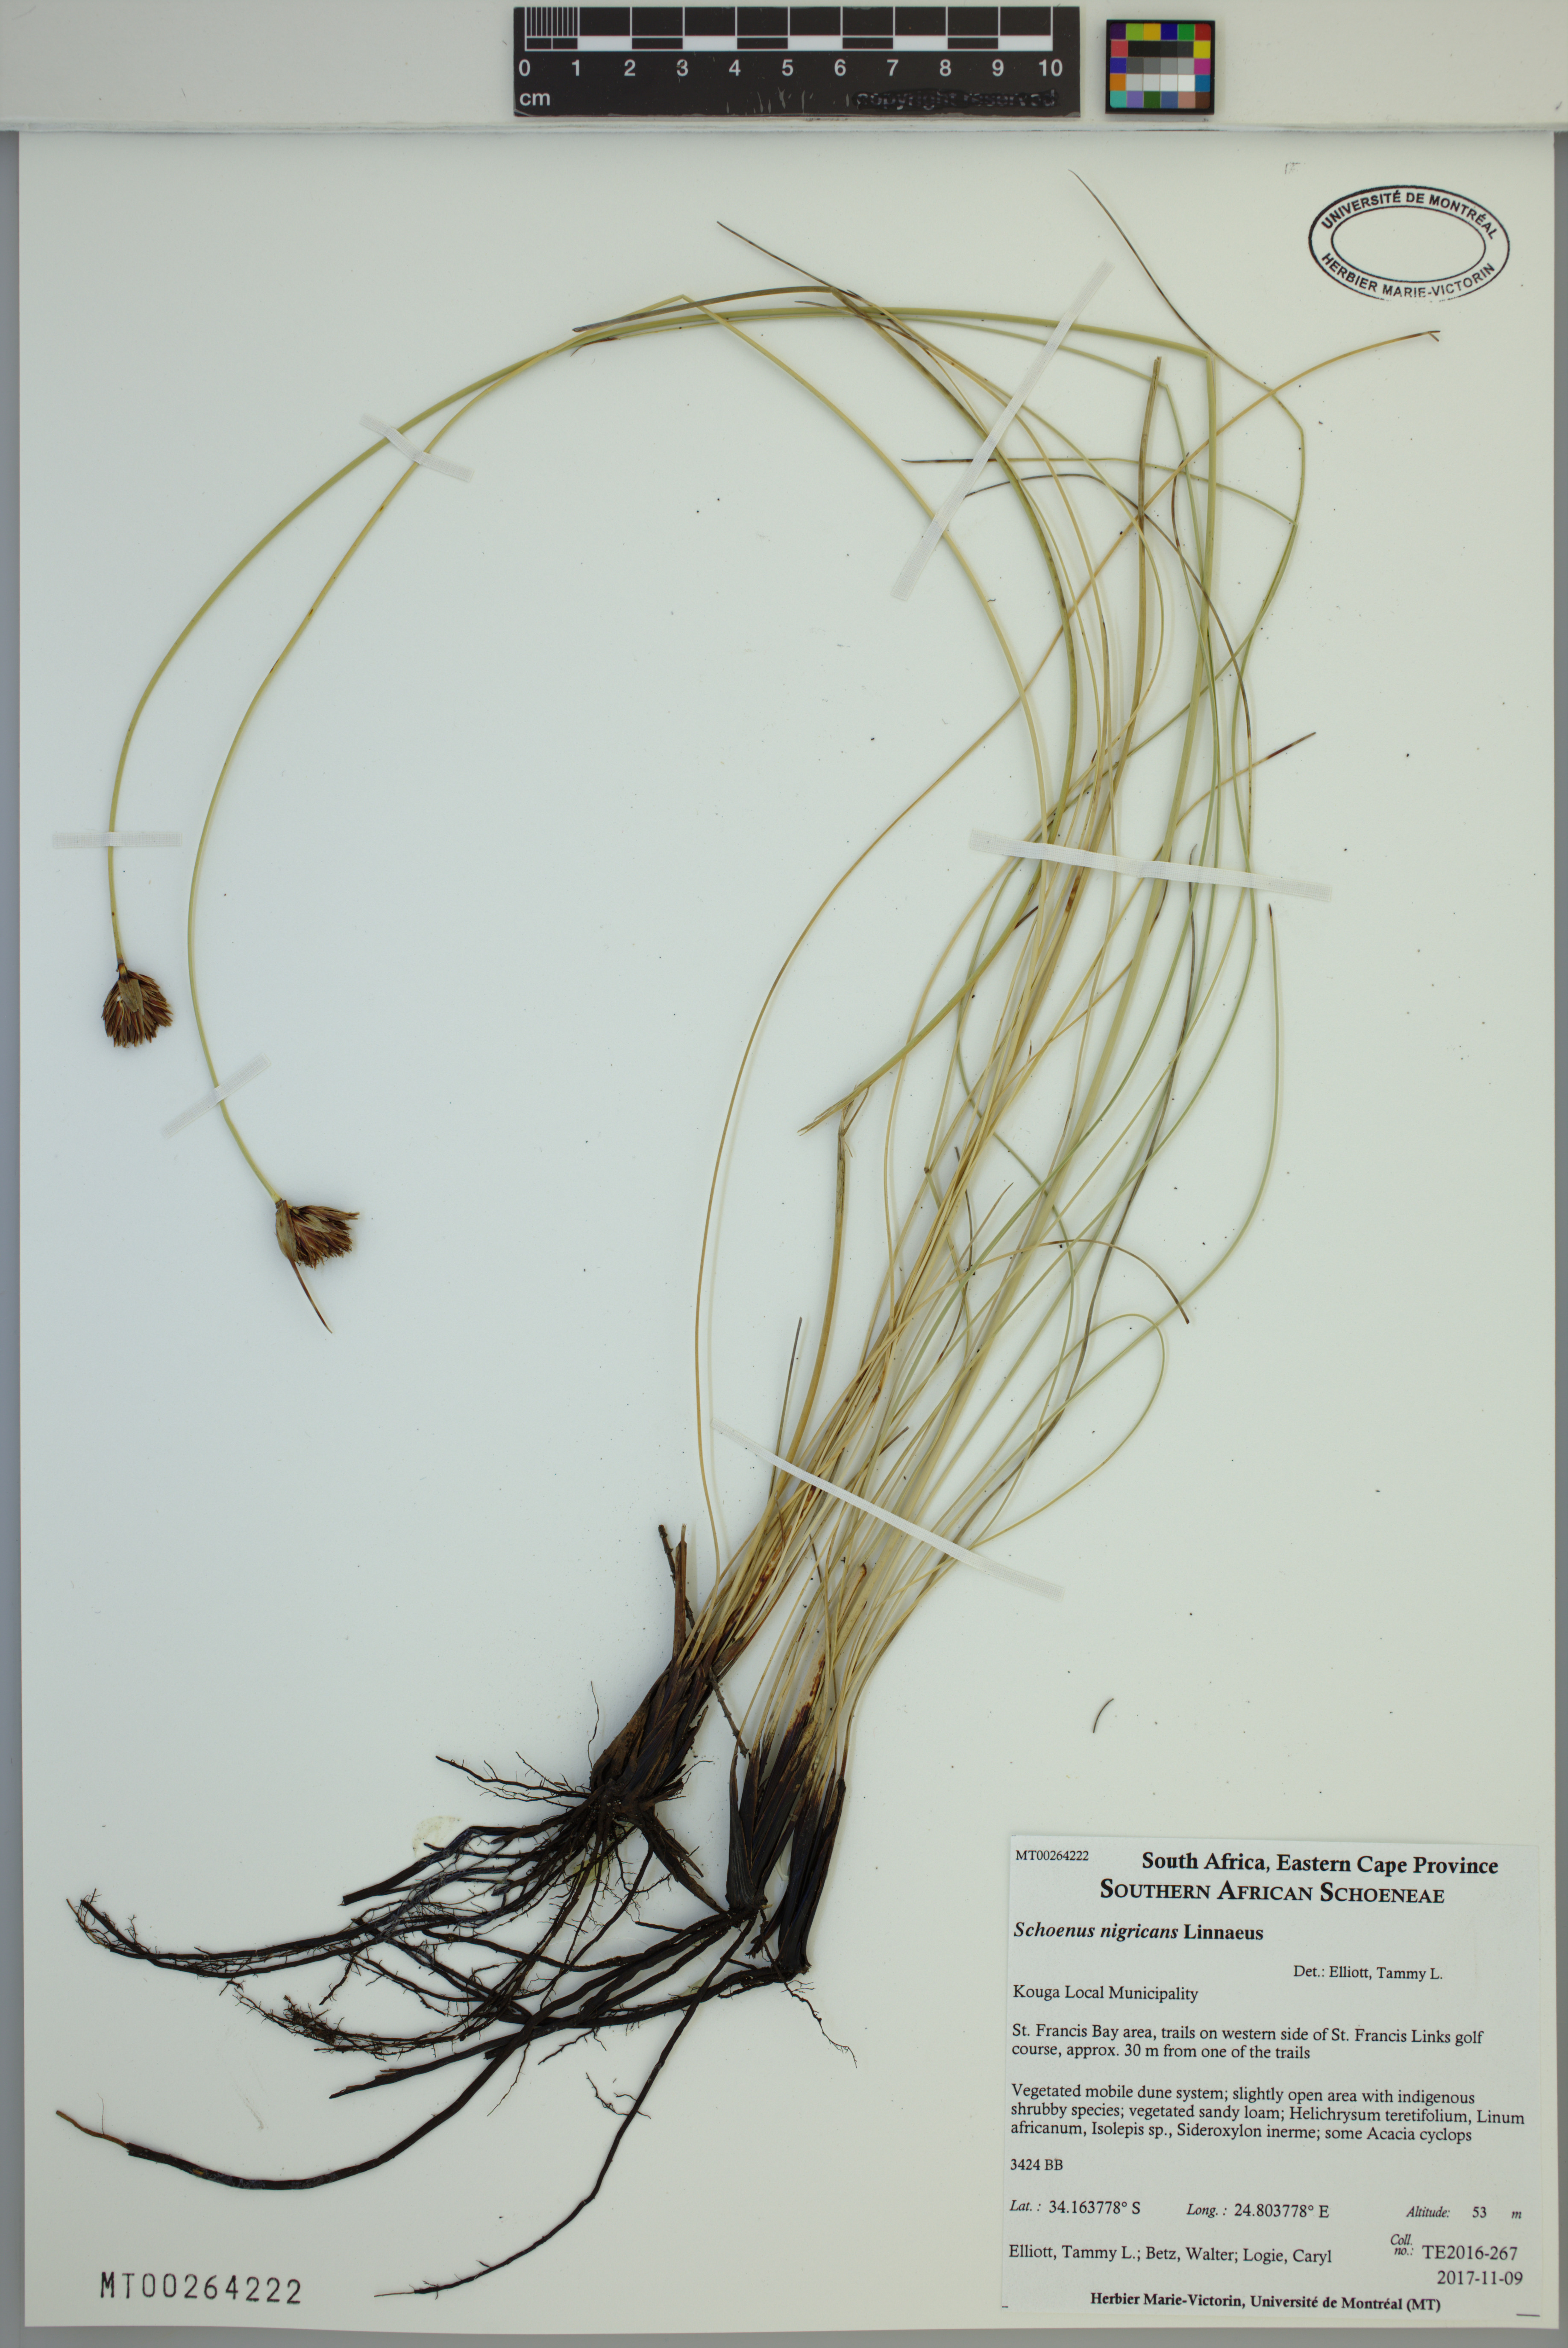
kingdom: Plantae
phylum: Tracheophyta
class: Liliopsida
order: Poales
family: Cyperaceae
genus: Schoenus
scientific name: Schoenus nigricans
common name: Black bog-rush
